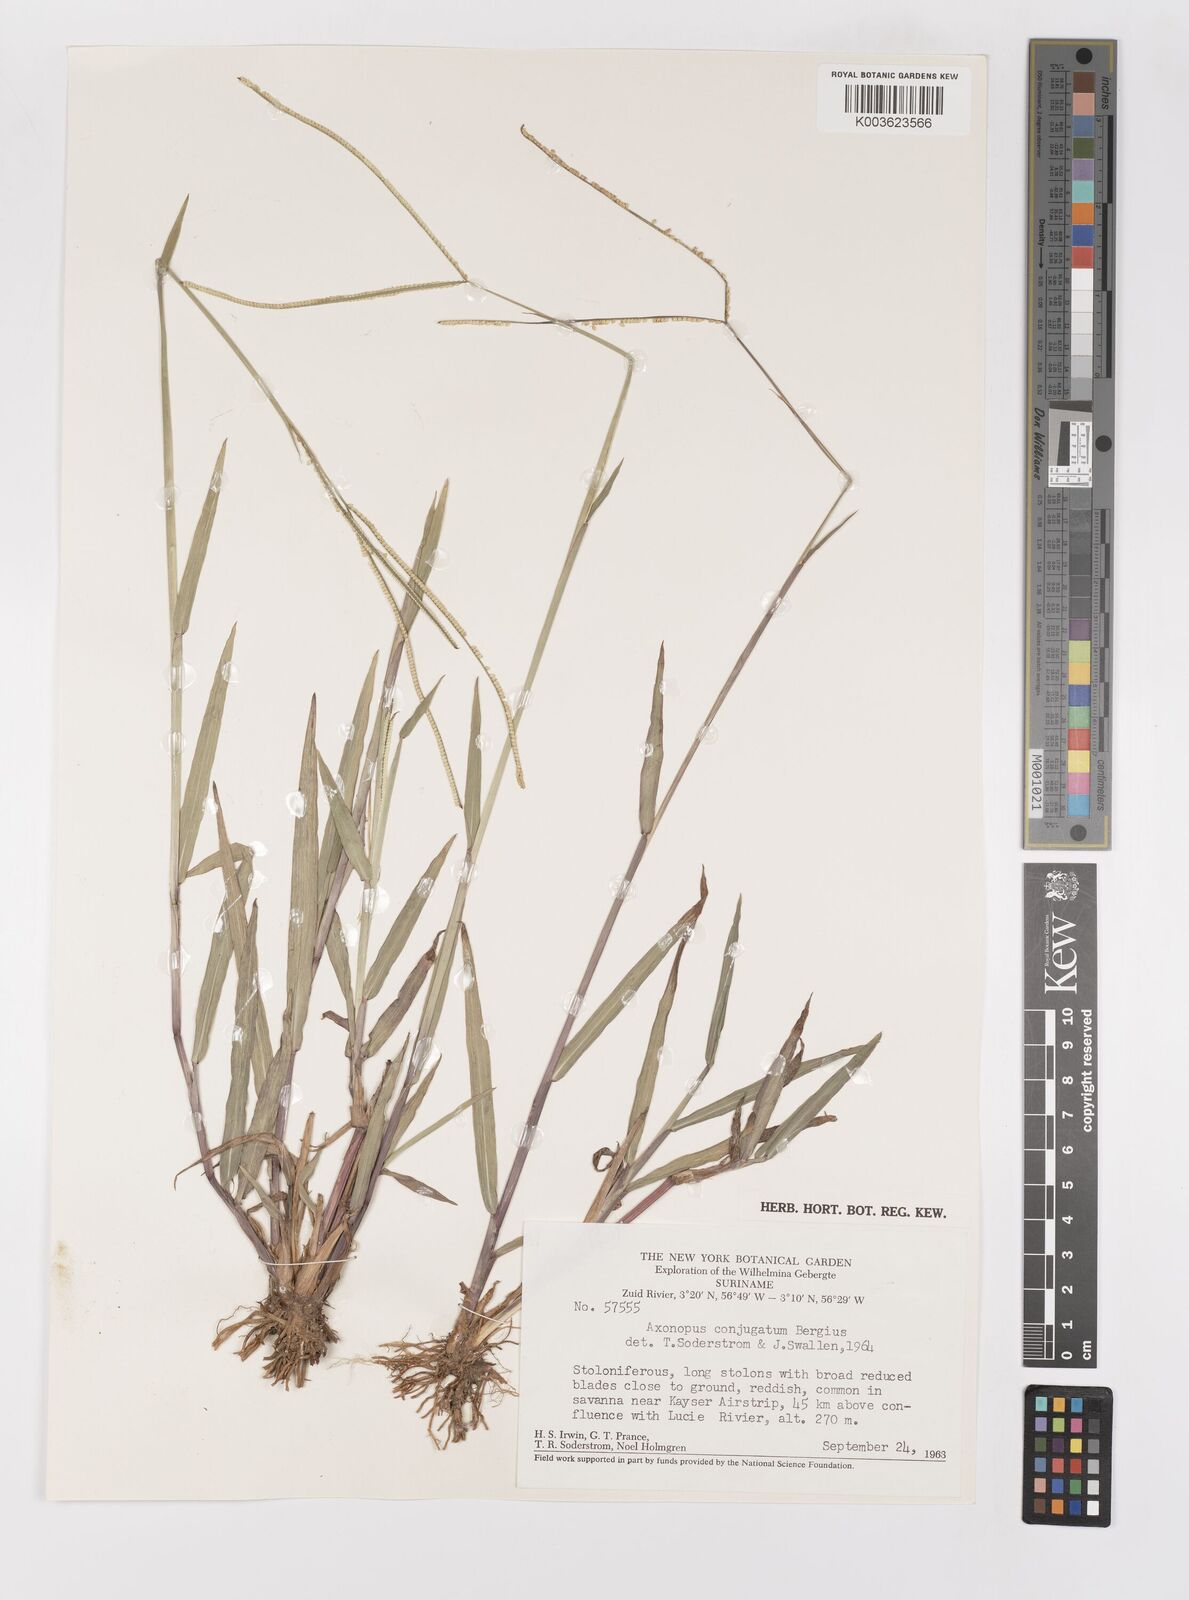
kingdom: Plantae
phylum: Tracheophyta
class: Liliopsida
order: Poales
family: Poaceae
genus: Paspalum
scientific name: Paspalum conjugatum
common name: Hilograss
